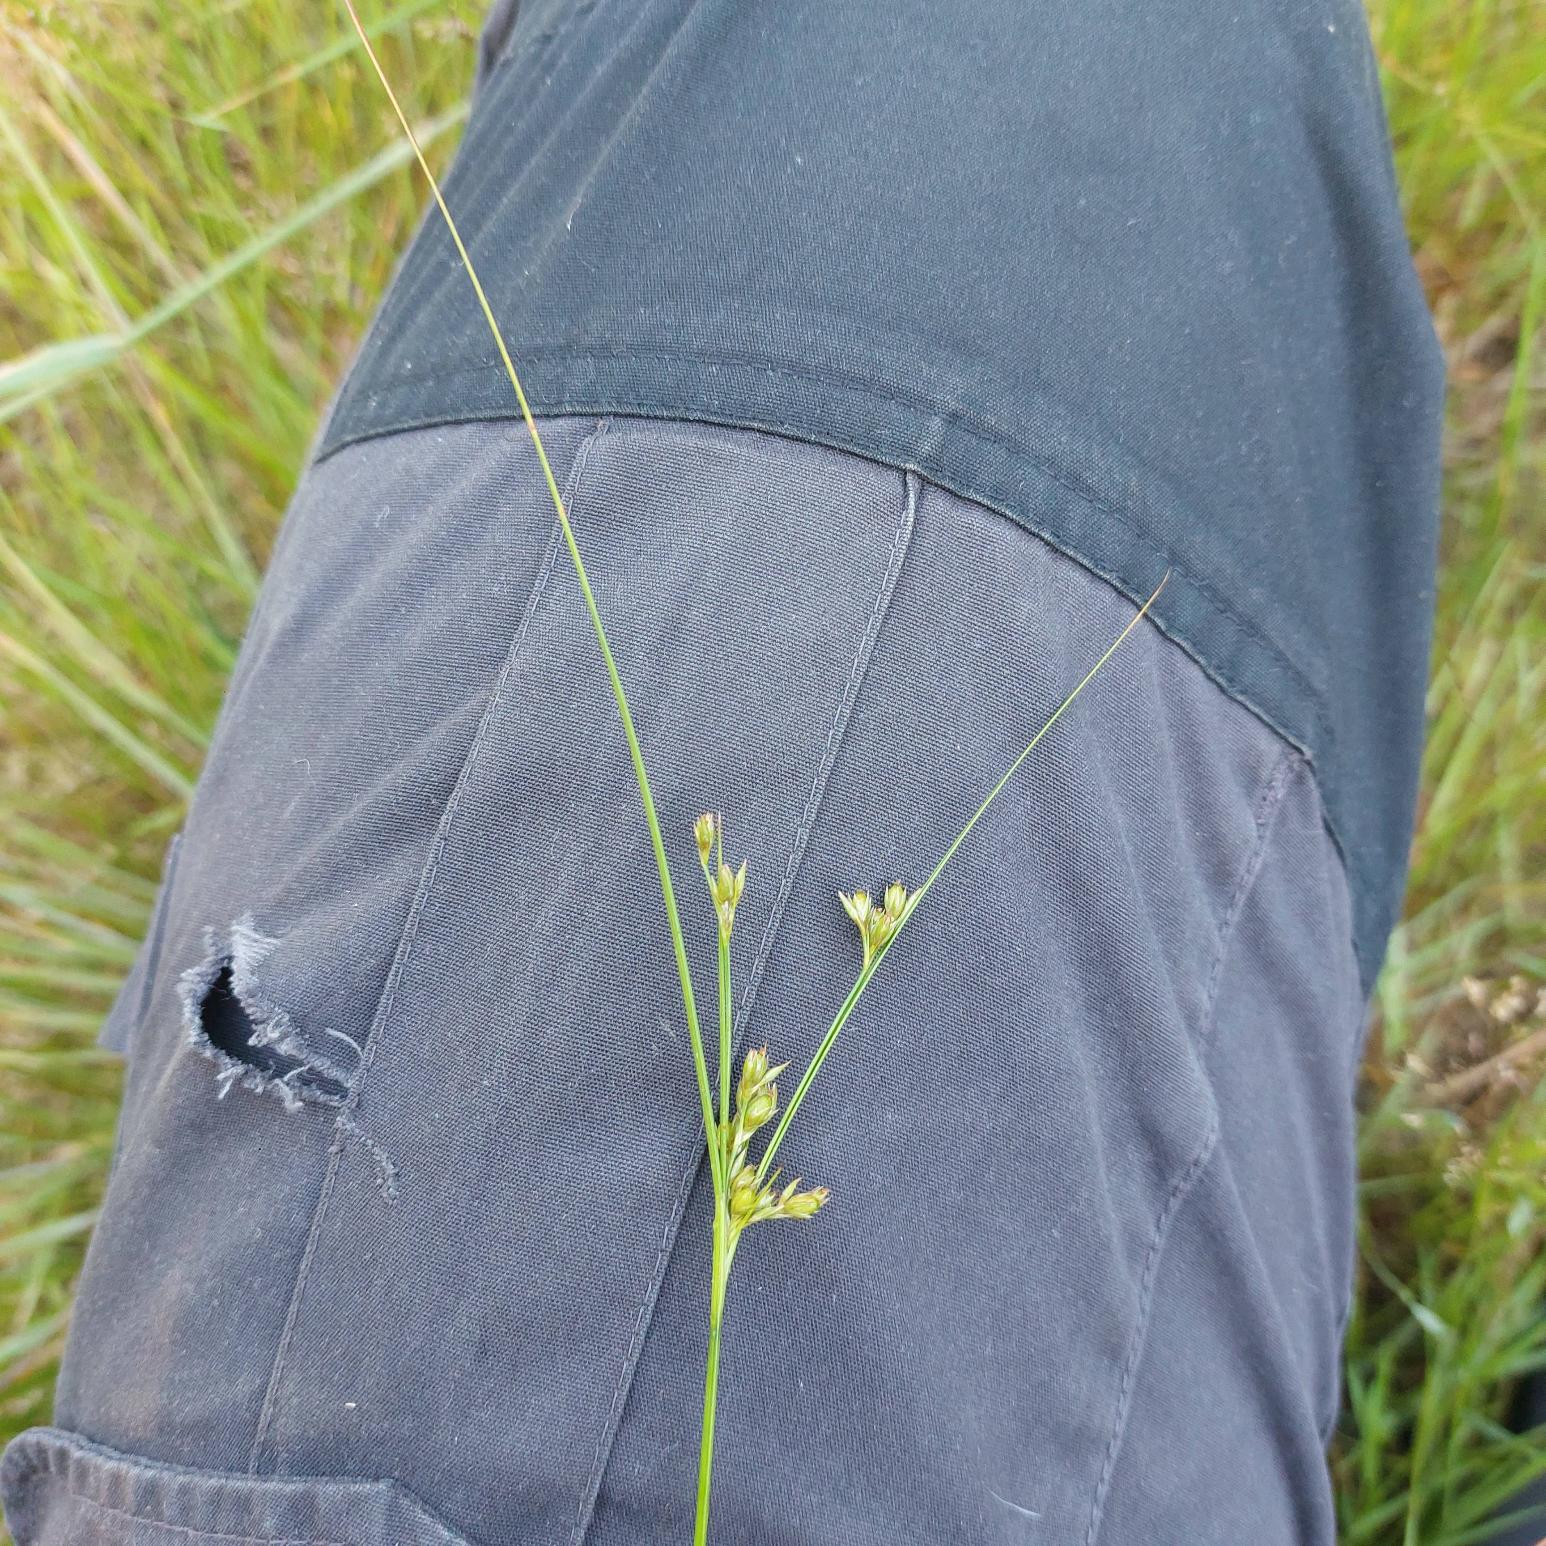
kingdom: Plantae
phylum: Tracheophyta
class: Liliopsida
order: Poales
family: Juncaceae
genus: Juncus
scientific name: Juncus tenuis
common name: Tue-siv
